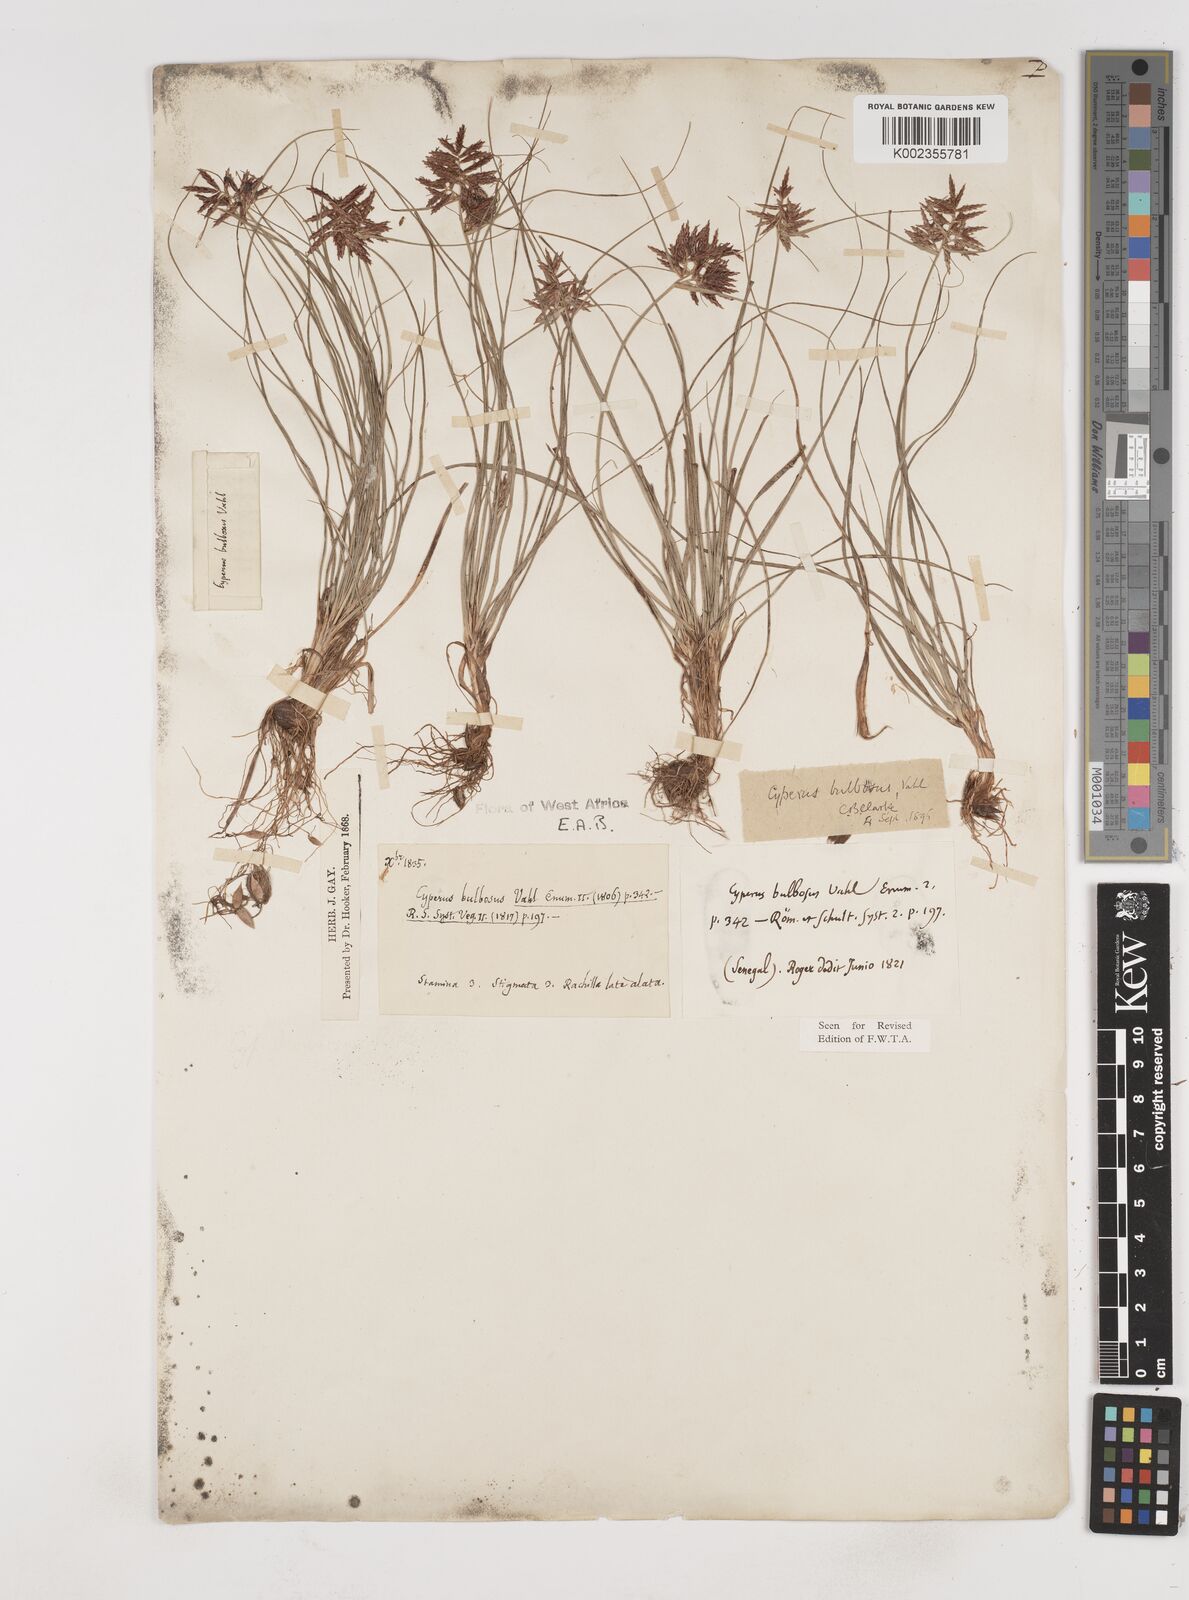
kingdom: Plantae
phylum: Tracheophyta
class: Liliopsida
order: Poales
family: Cyperaceae
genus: Cyperus
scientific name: Cyperus bulbosus
